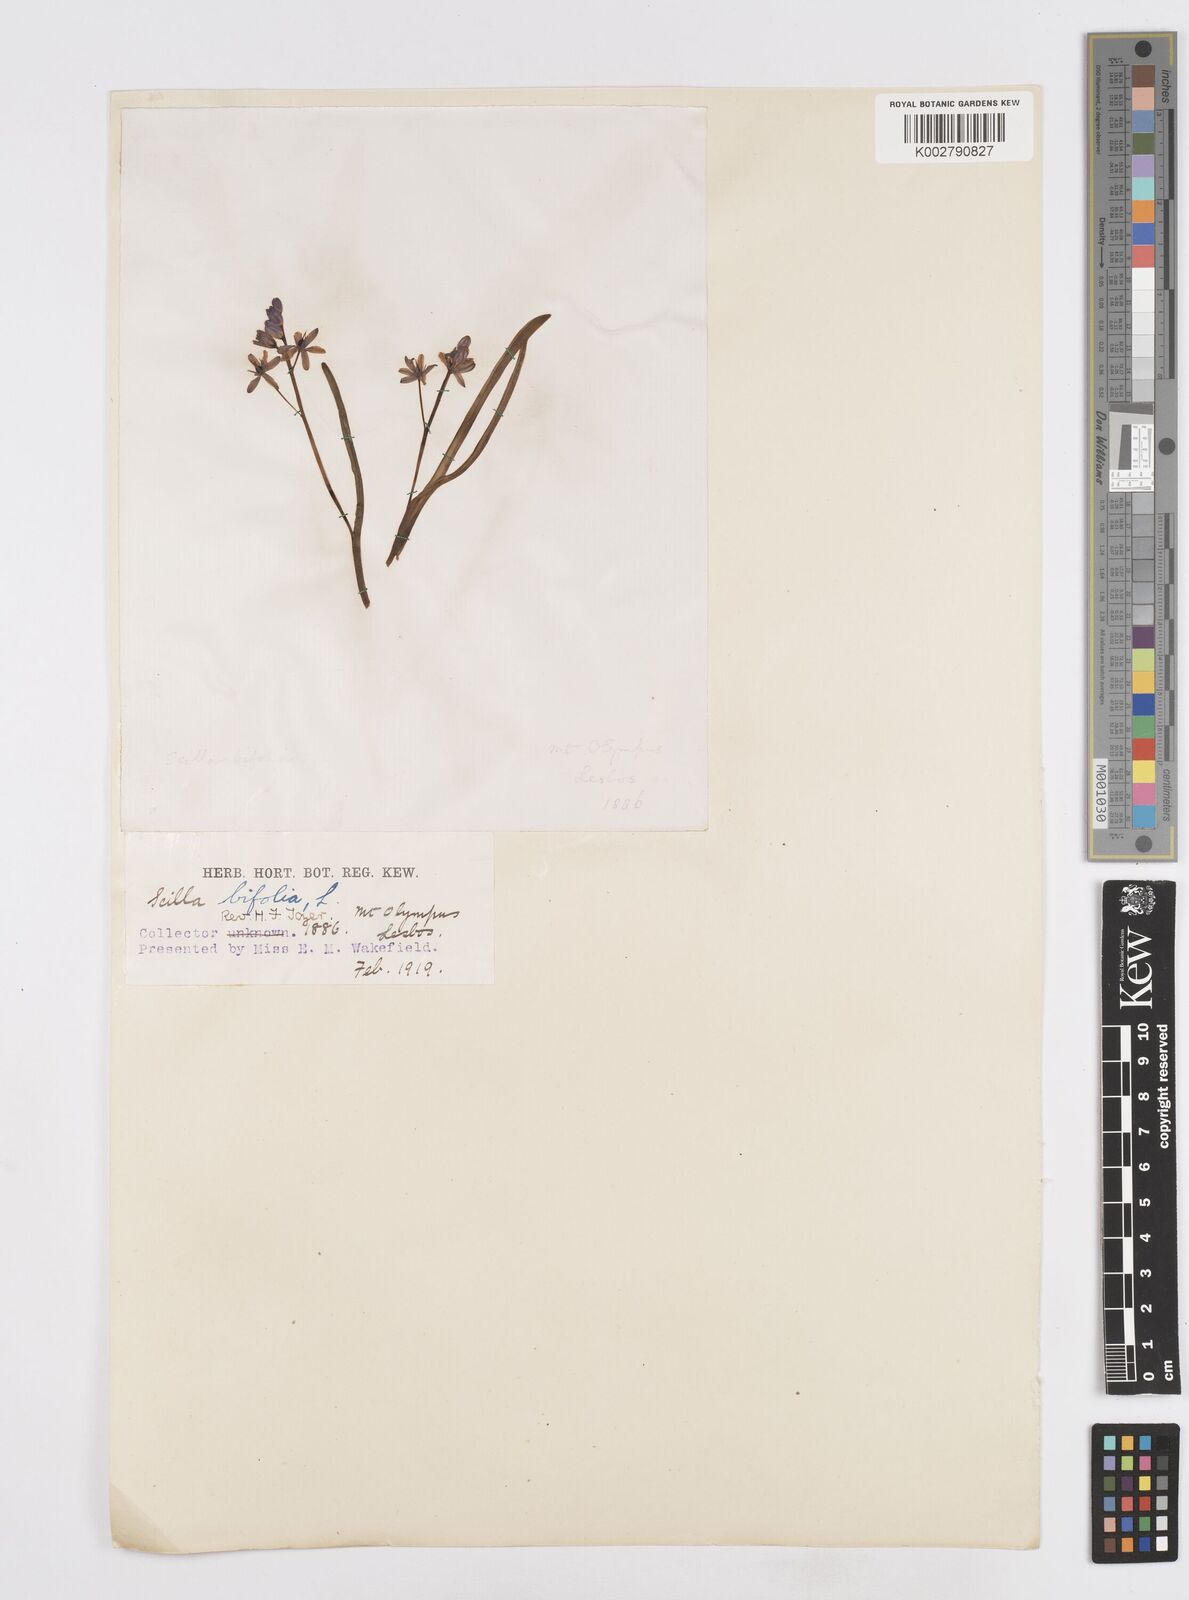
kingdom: Plantae
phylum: Tracheophyta
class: Liliopsida
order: Asparagales
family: Asparagaceae
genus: Scilla
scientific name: Scilla bifolia
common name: Alpine squill
